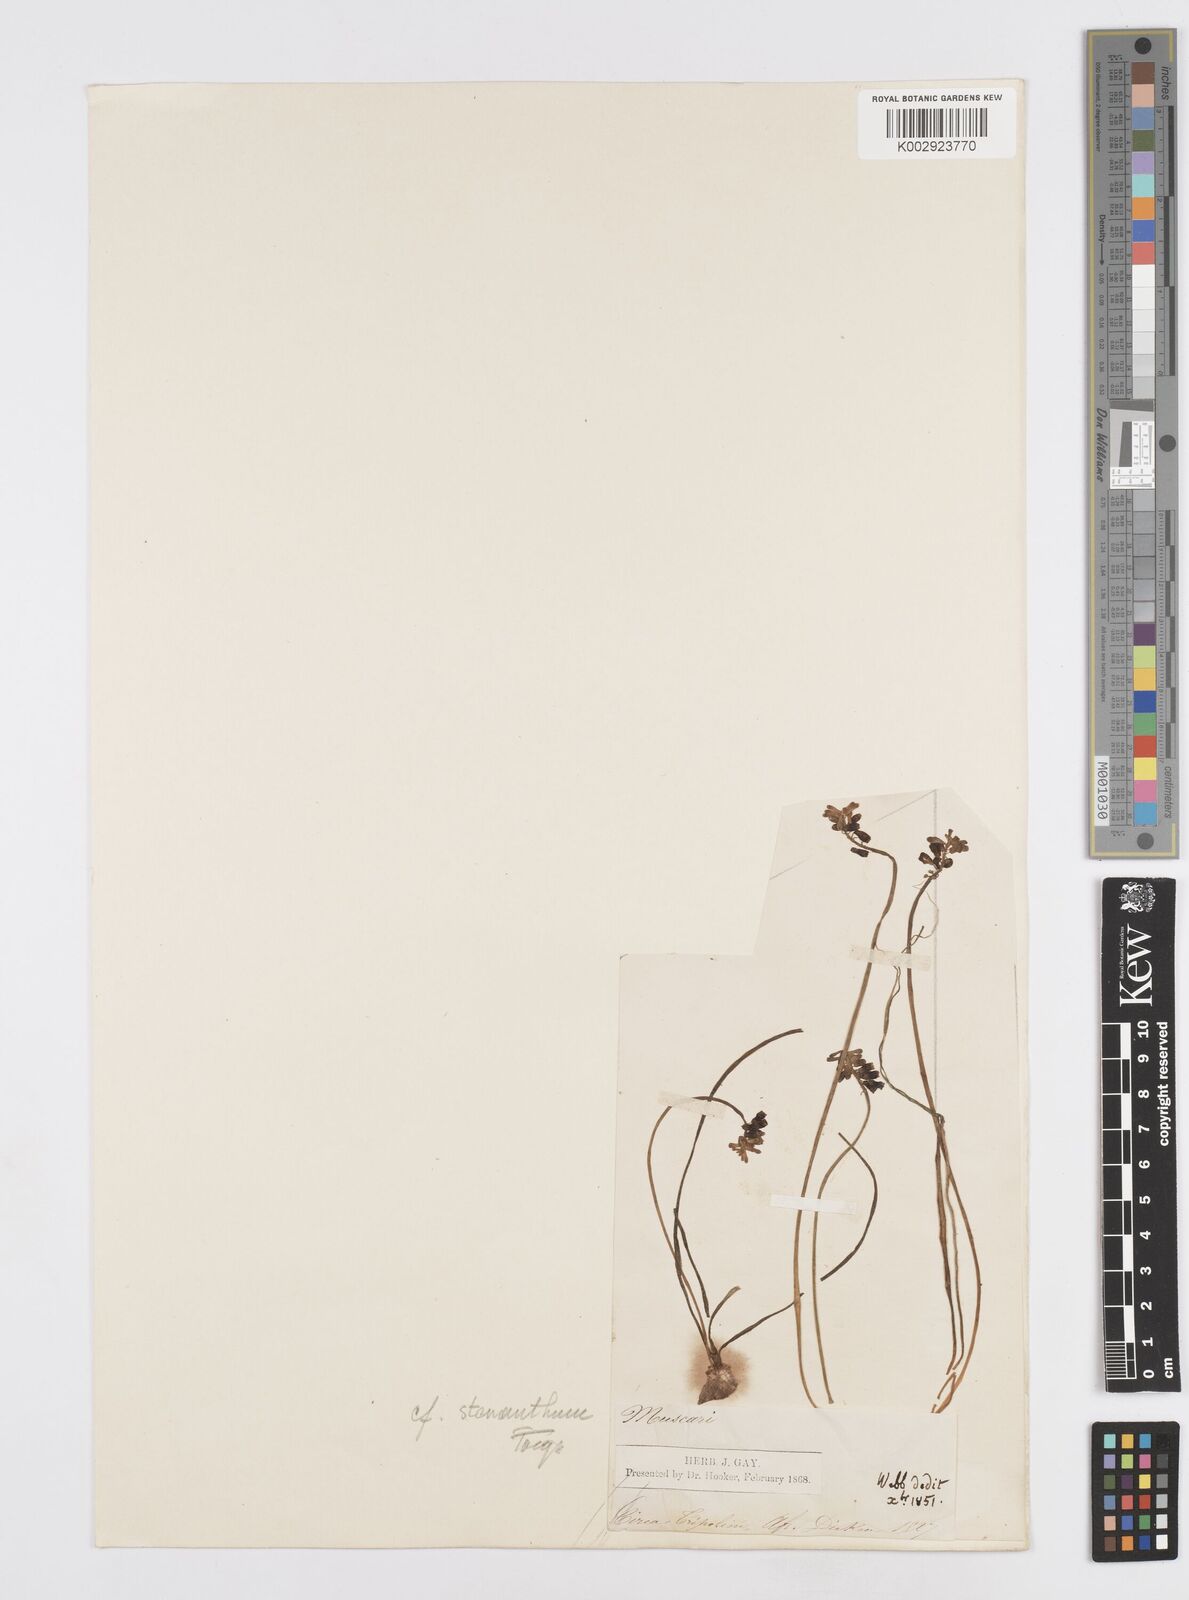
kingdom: Plantae
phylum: Tracheophyta
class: Liliopsida
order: Asparagales
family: Asparagaceae
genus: Muscari
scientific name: Muscari stenanthum
